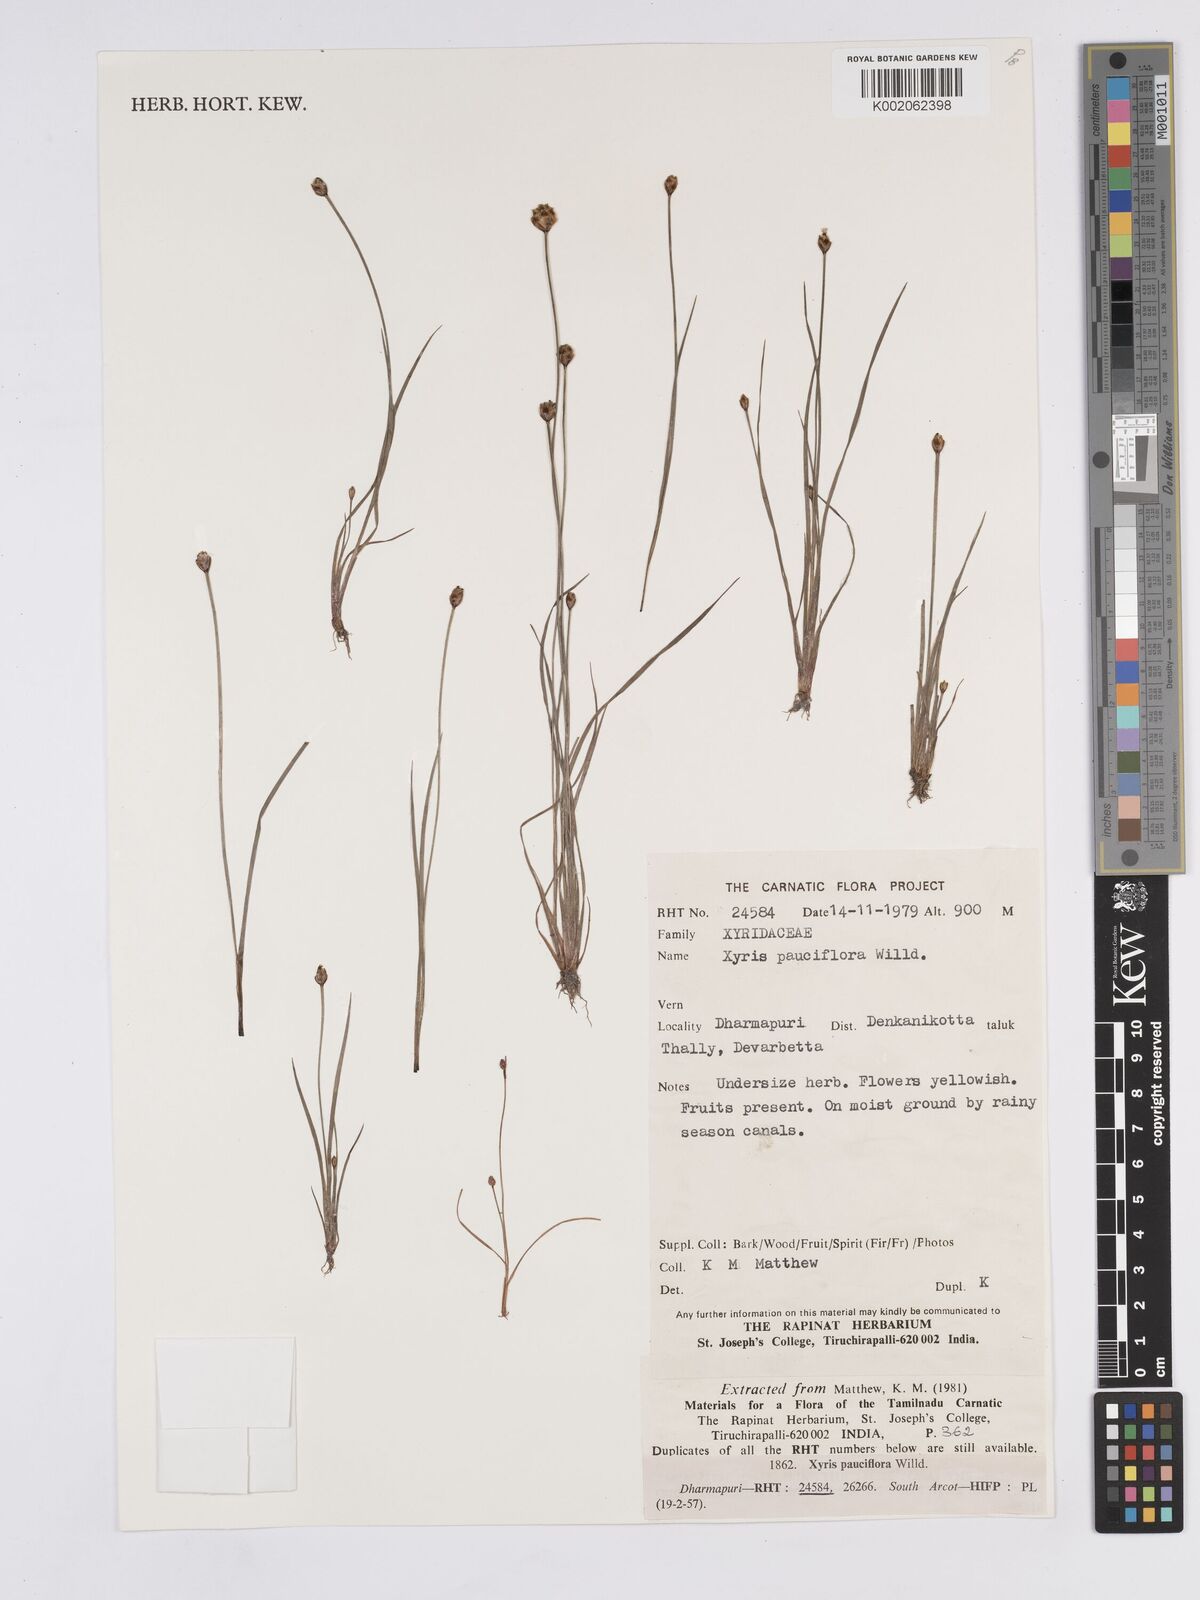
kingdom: Plantae
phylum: Tracheophyta
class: Liliopsida
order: Poales
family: Xyridaceae
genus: Xyris
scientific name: Xyris pauciflora
